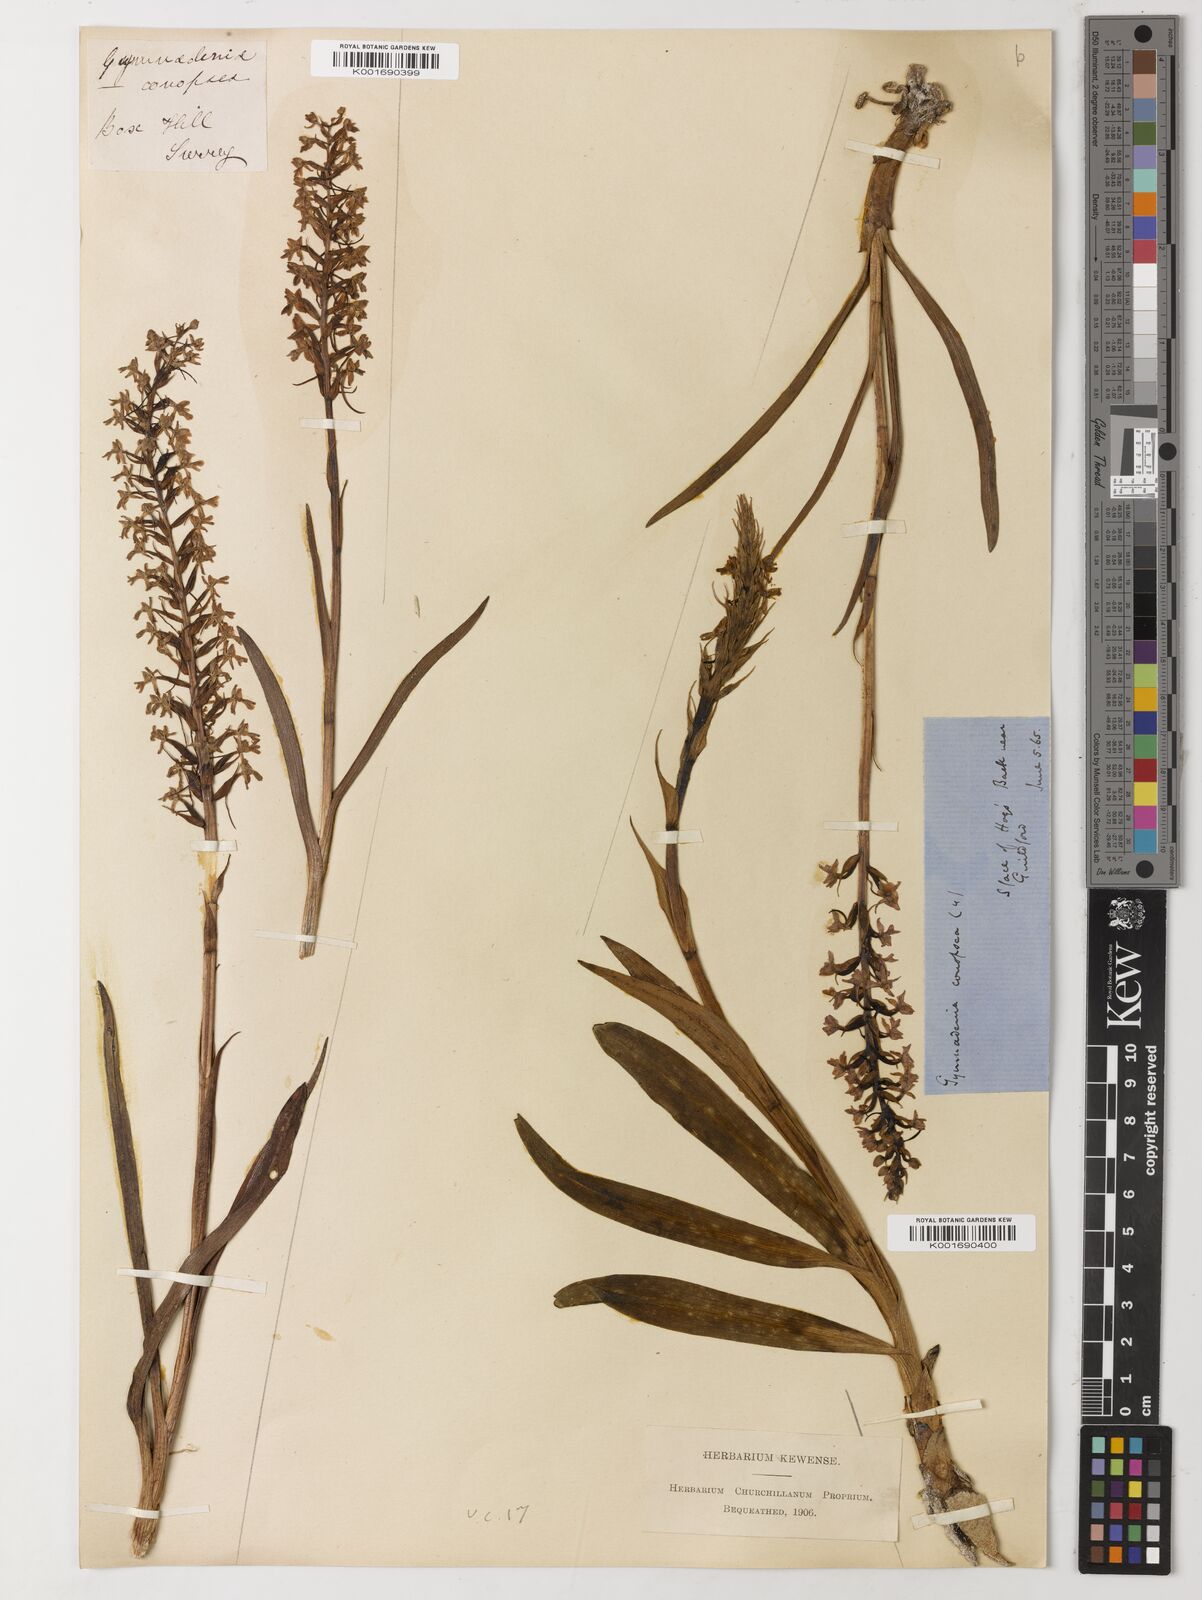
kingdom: Plantae
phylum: Tracheophyta
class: Magnoliopsida
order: Fabales
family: Fabaceae
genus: Ceratonia
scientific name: Ceratonia siliqua
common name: Carob
